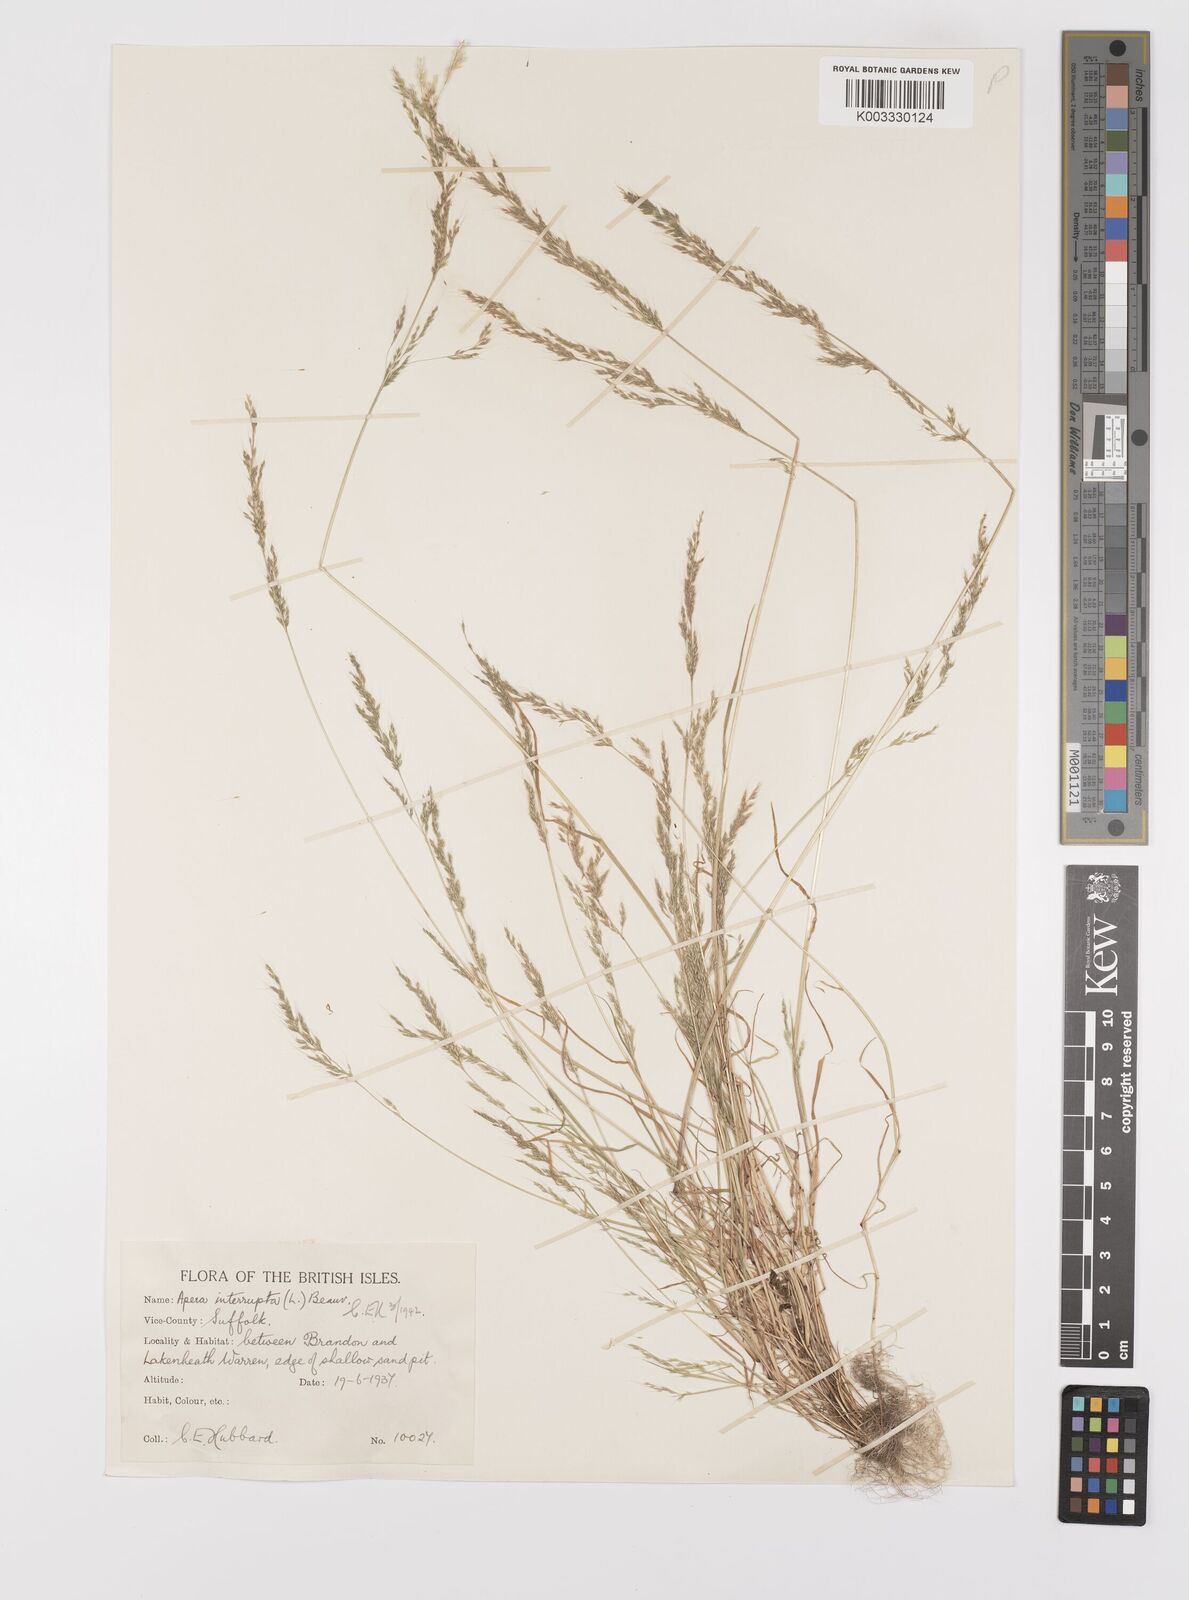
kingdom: Plantae
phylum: Tracheophyta
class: Liliopsida
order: Poales
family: Poaceae
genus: Apera
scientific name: Apera interrupta
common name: Dense silky-bent
